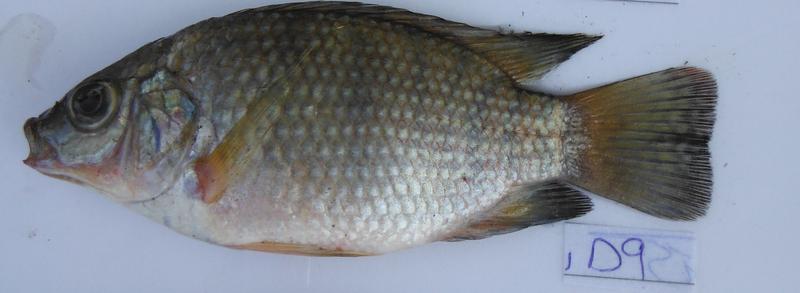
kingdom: Animalia
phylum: Chordata
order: Perciformes
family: Cichlidae
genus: Oreochromis
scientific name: Oreochromis urolepis
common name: Wami tilapia
